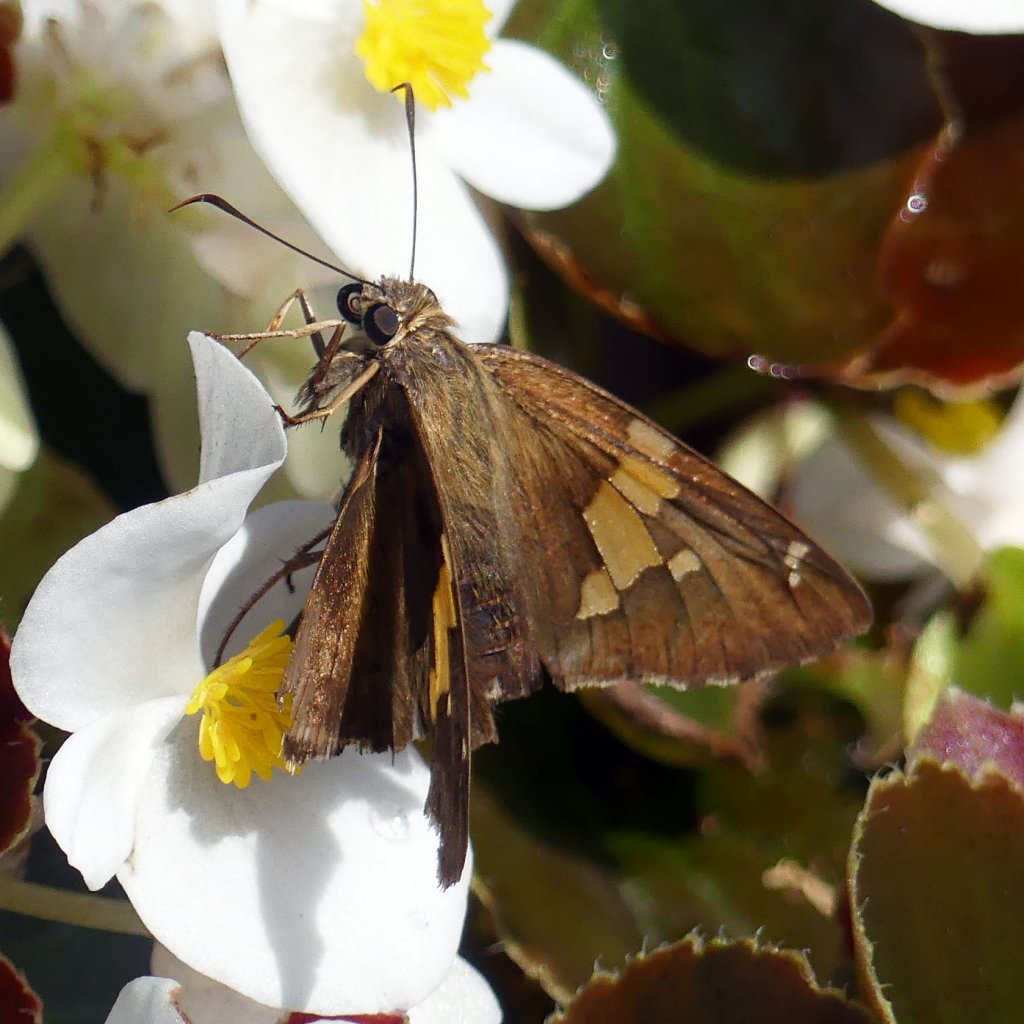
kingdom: Animalia
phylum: Arthropoda
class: Insecta
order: Lepidoptera
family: Hesperiidae
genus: Epargyreus
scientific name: Epargyreus clarus
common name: Silver-spotted Skipper
